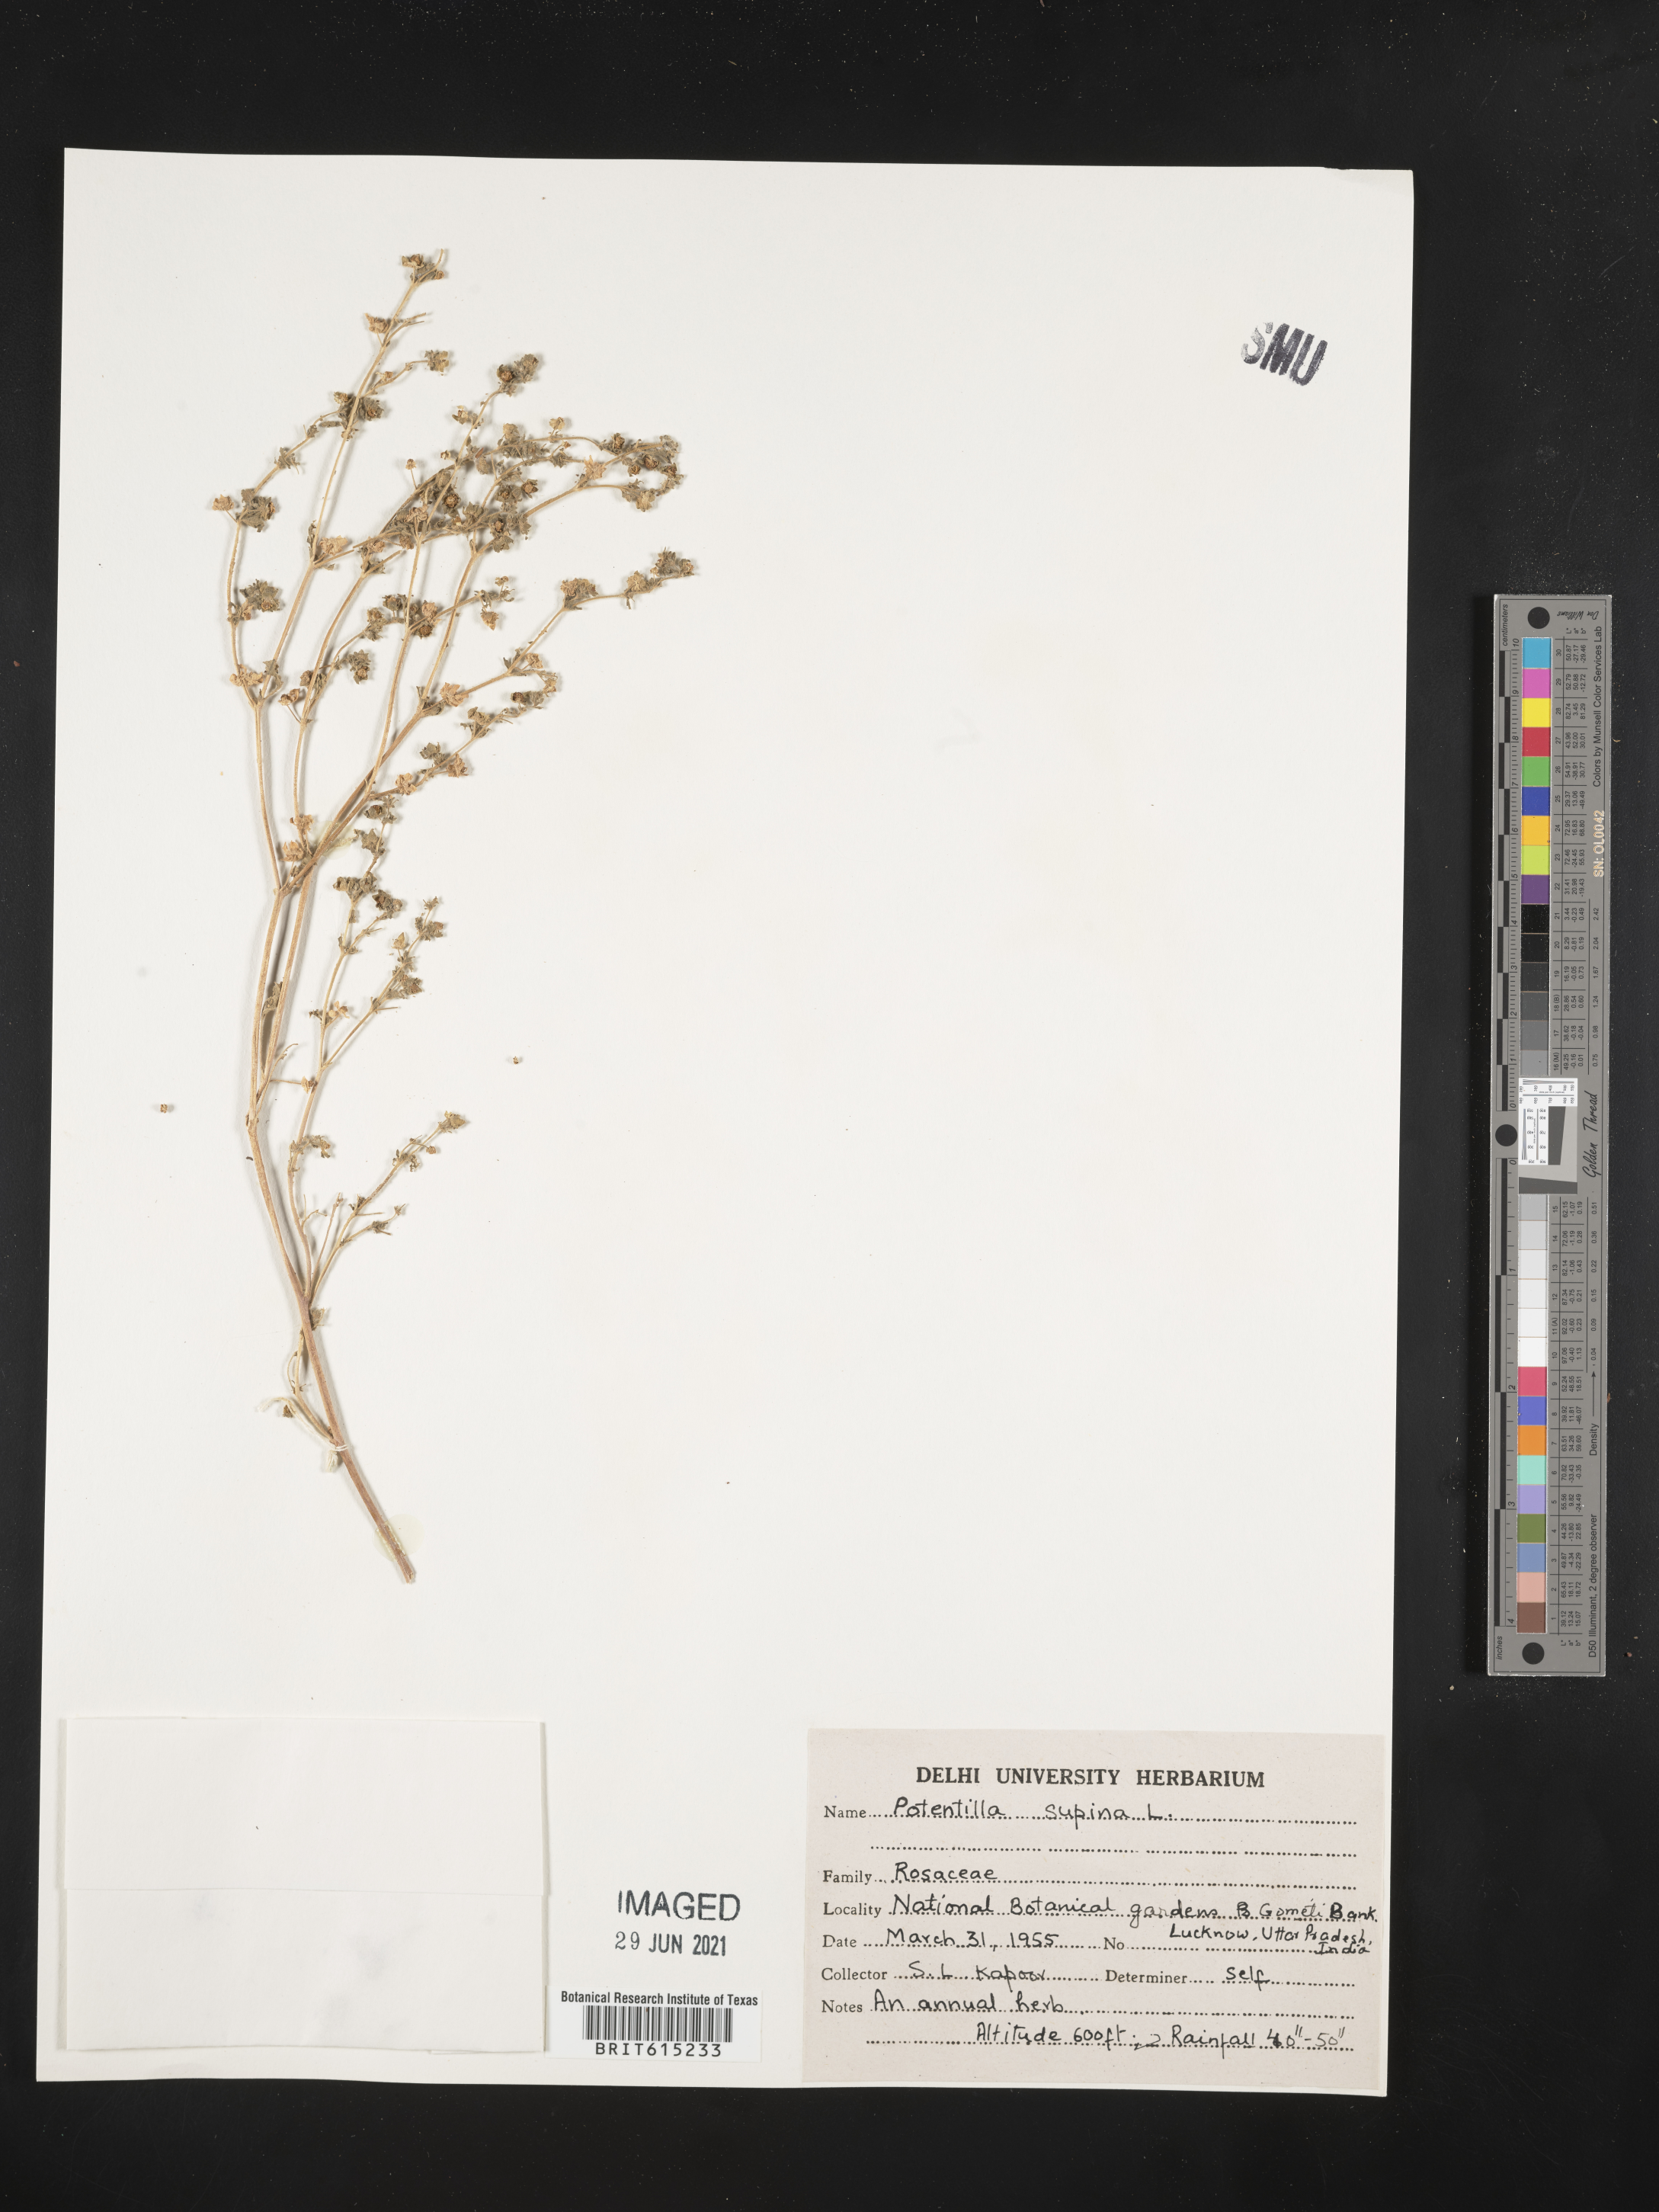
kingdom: Plantae
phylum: Tracheophyta
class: Magnoliopsida
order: Rosales
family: Rosaceae
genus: Potentilla
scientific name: Potentilla supina
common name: Prostrate cinquefoil
